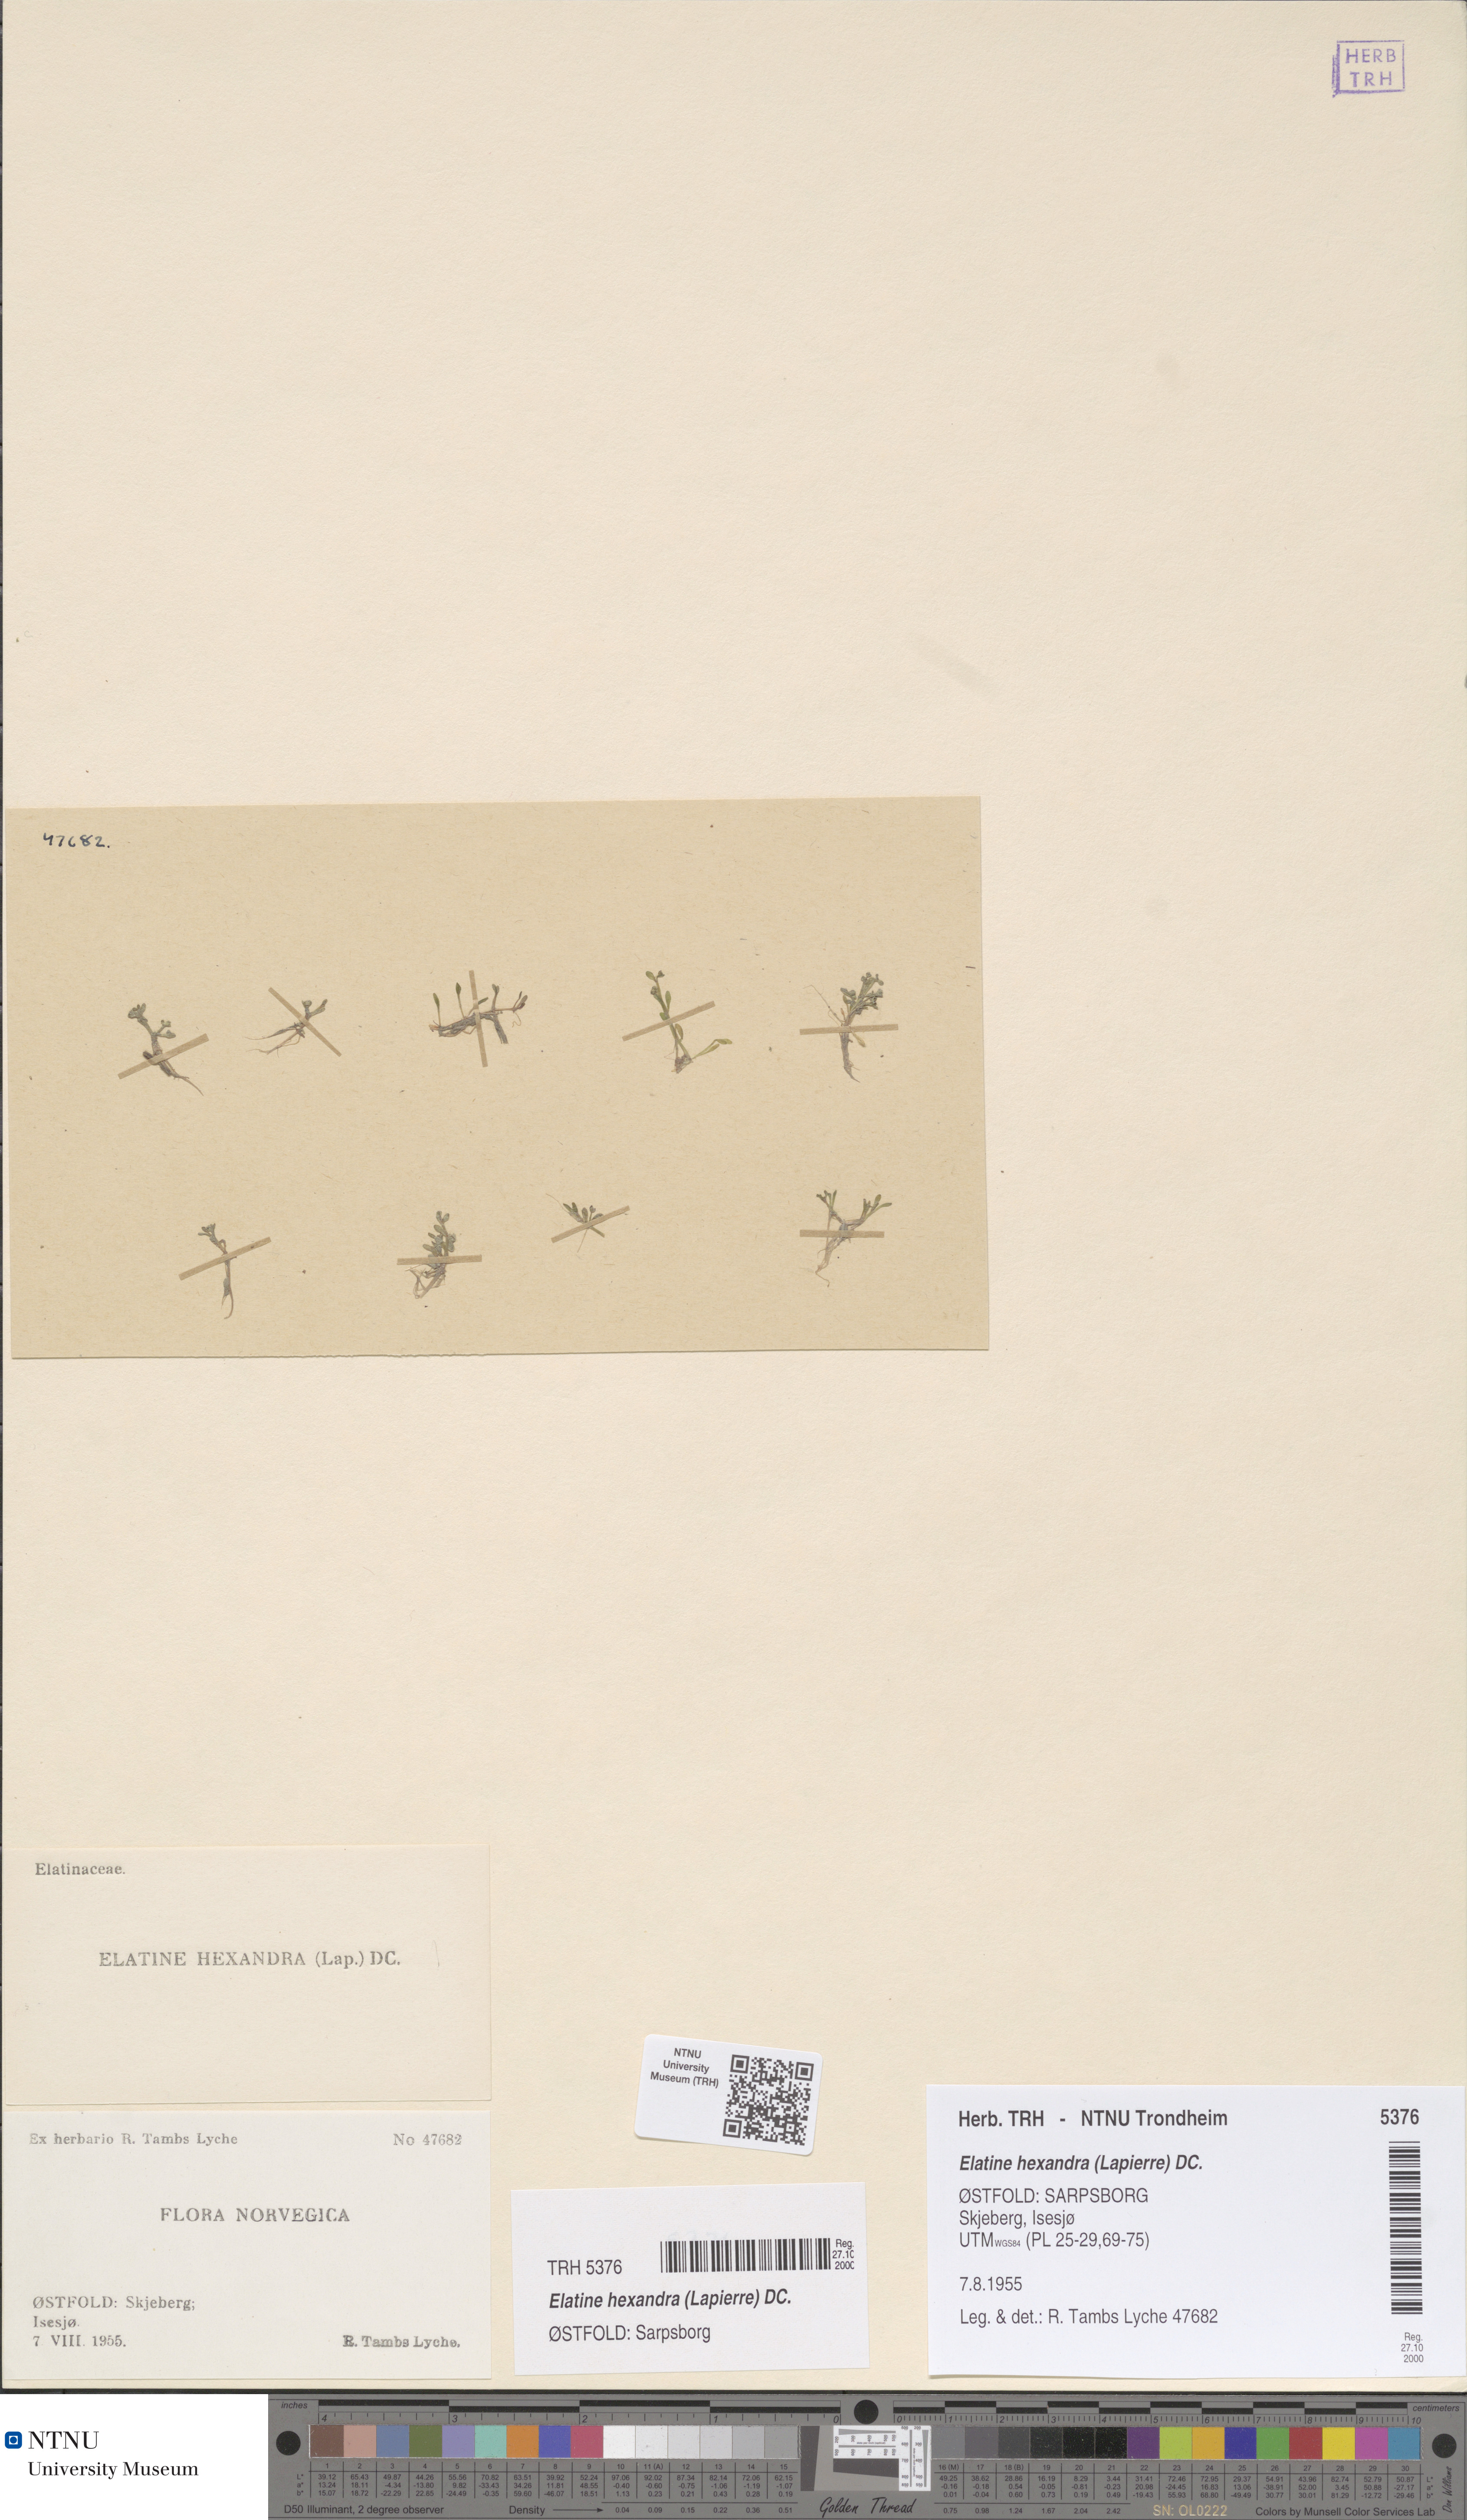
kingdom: Plantae
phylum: Tracheophyta
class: Magnoliopsida
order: Malpighiales
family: Elatinaceae
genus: Elatine
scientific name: Elatine hexandra
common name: Six-stamened waterwort
